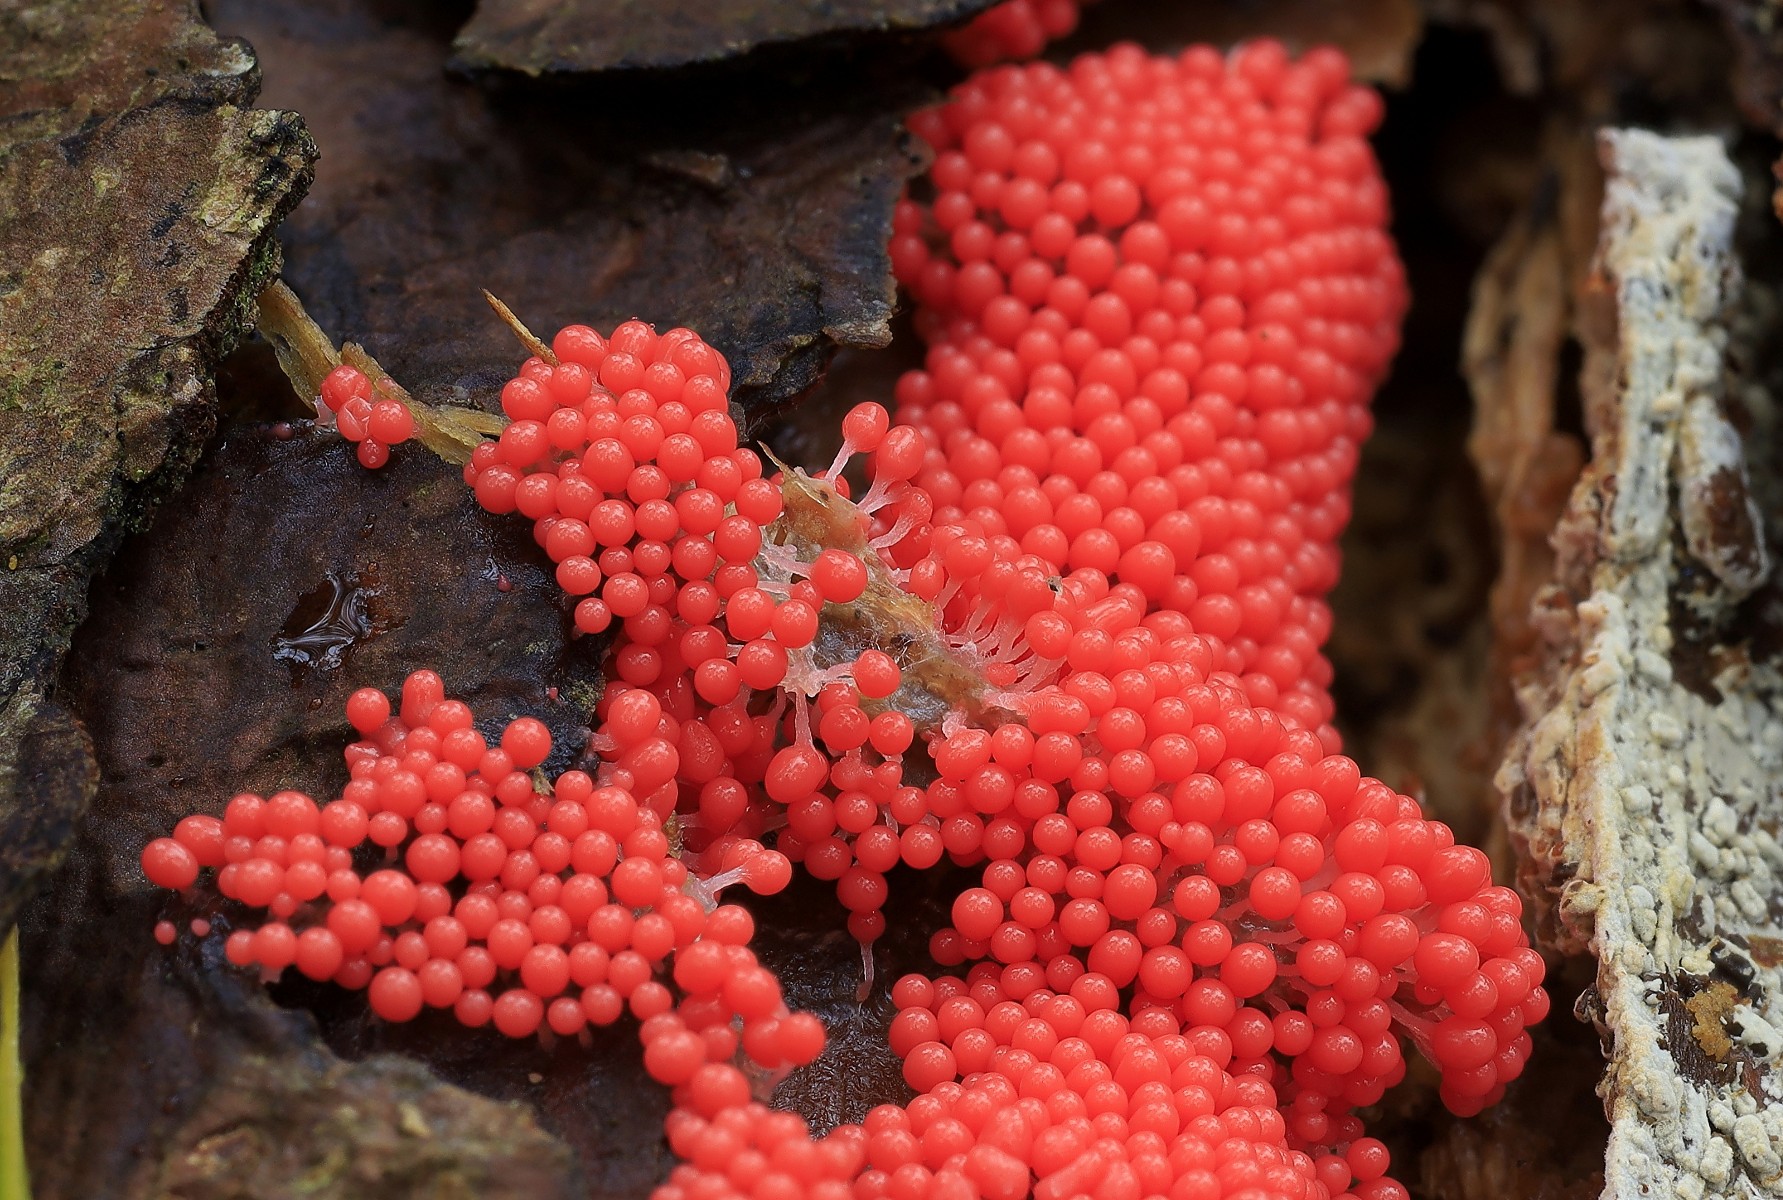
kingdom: Protozoa
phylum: Mycetozoa
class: Myxomycetes
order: Trichiales
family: Trichiaceae
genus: Trichia
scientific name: Trichia
